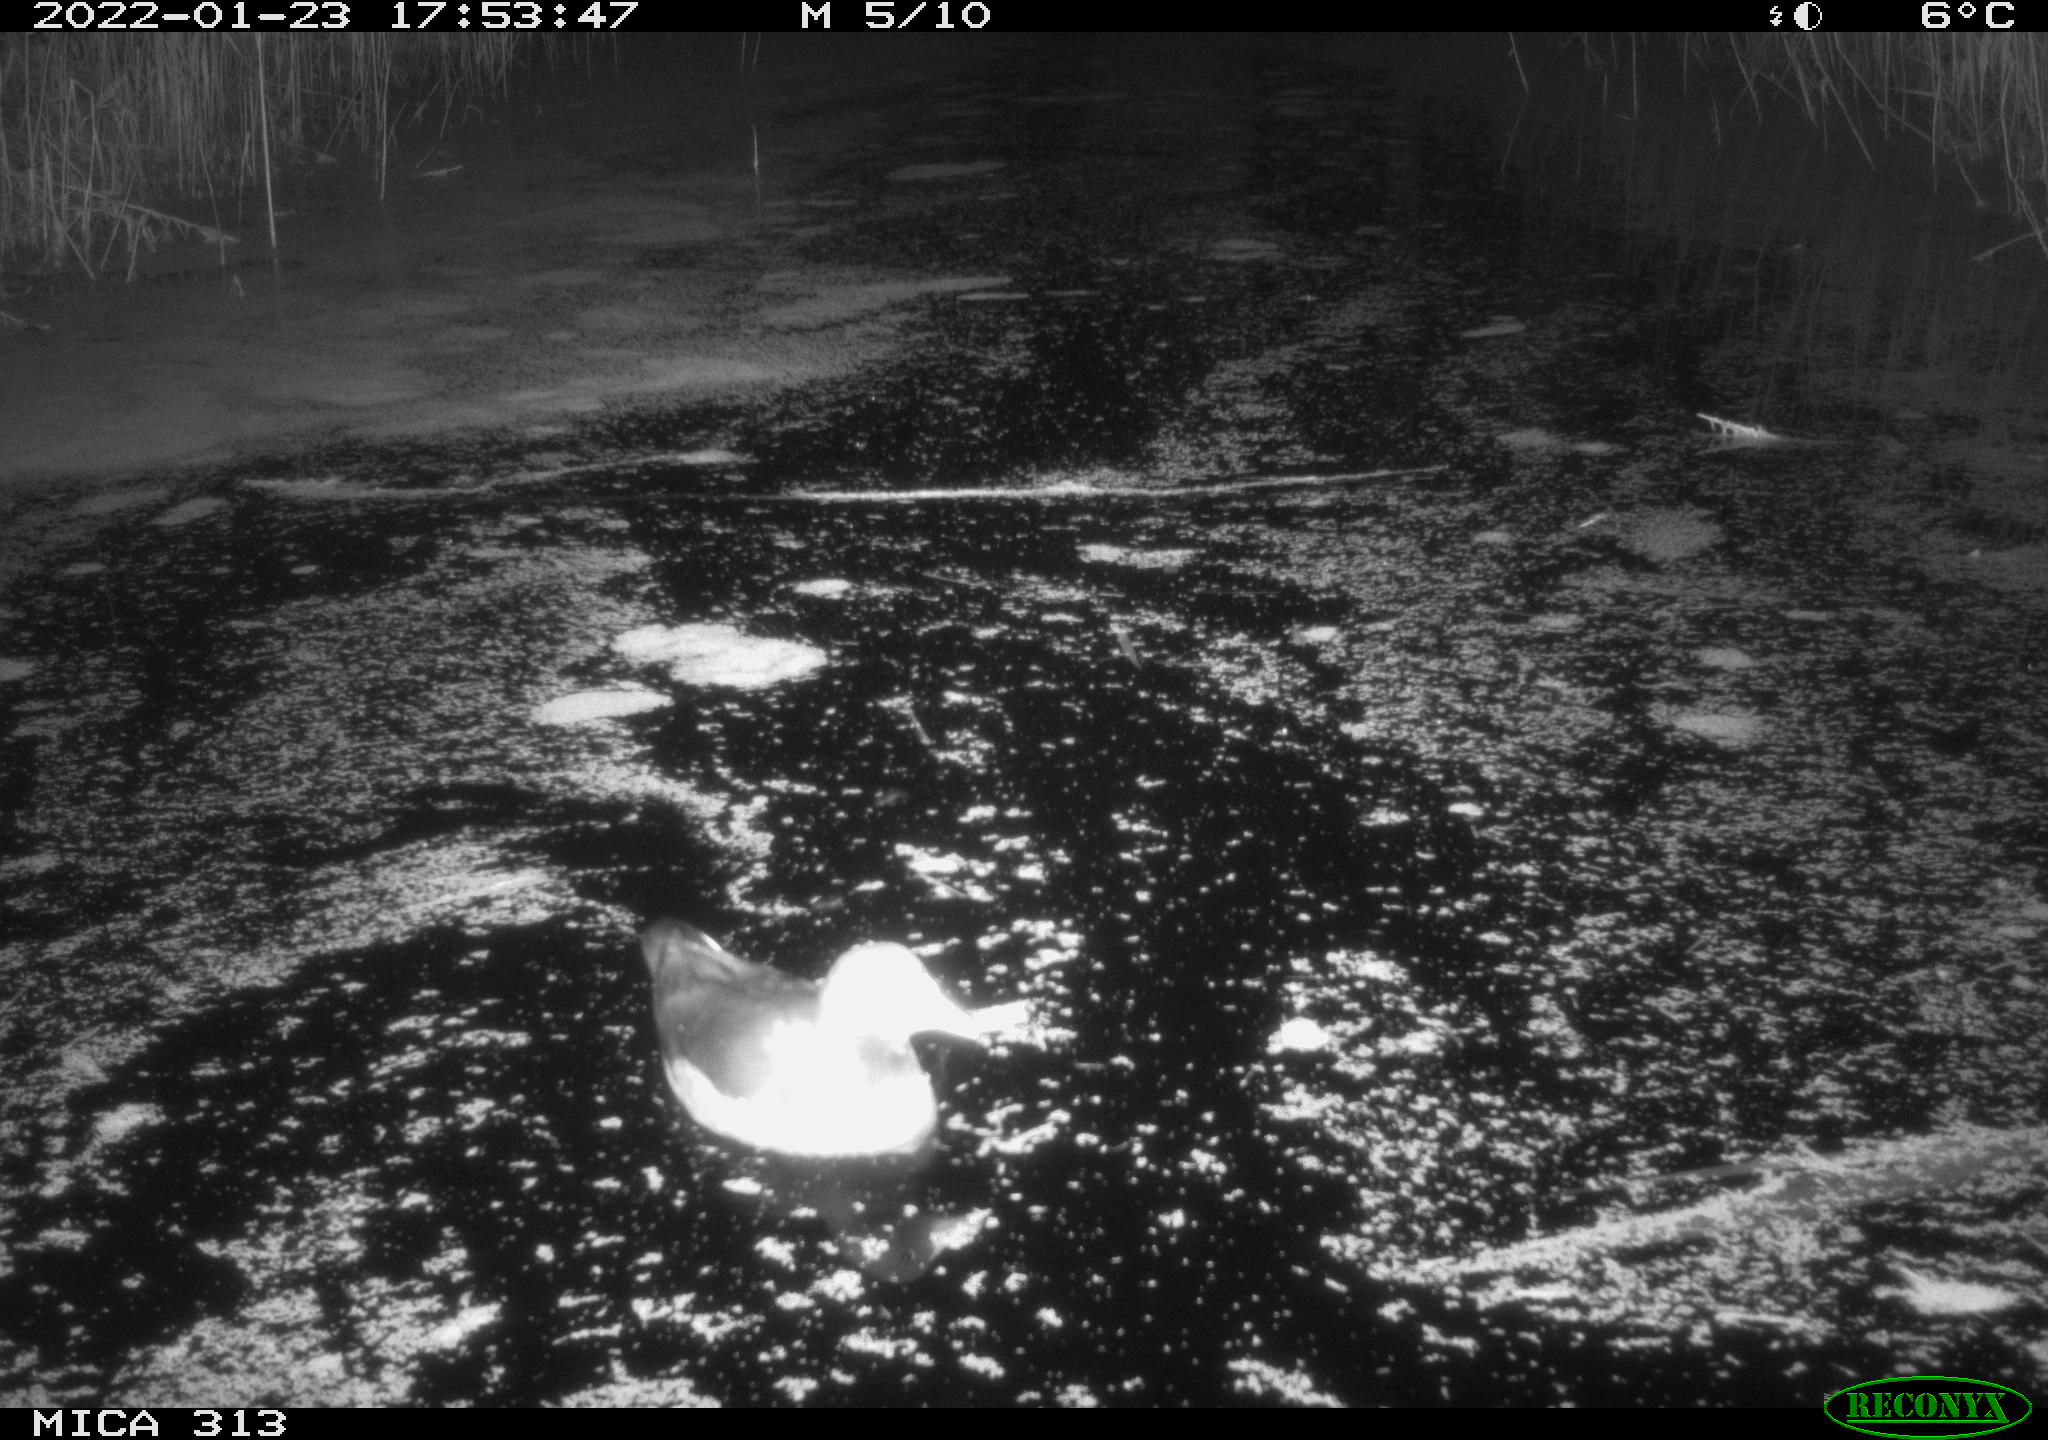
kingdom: Animalia
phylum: Chordata
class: Aves
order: Gruiformes
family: Rallidae
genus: Gallinula
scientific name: Gallinula chloropus
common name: Common moorhen
